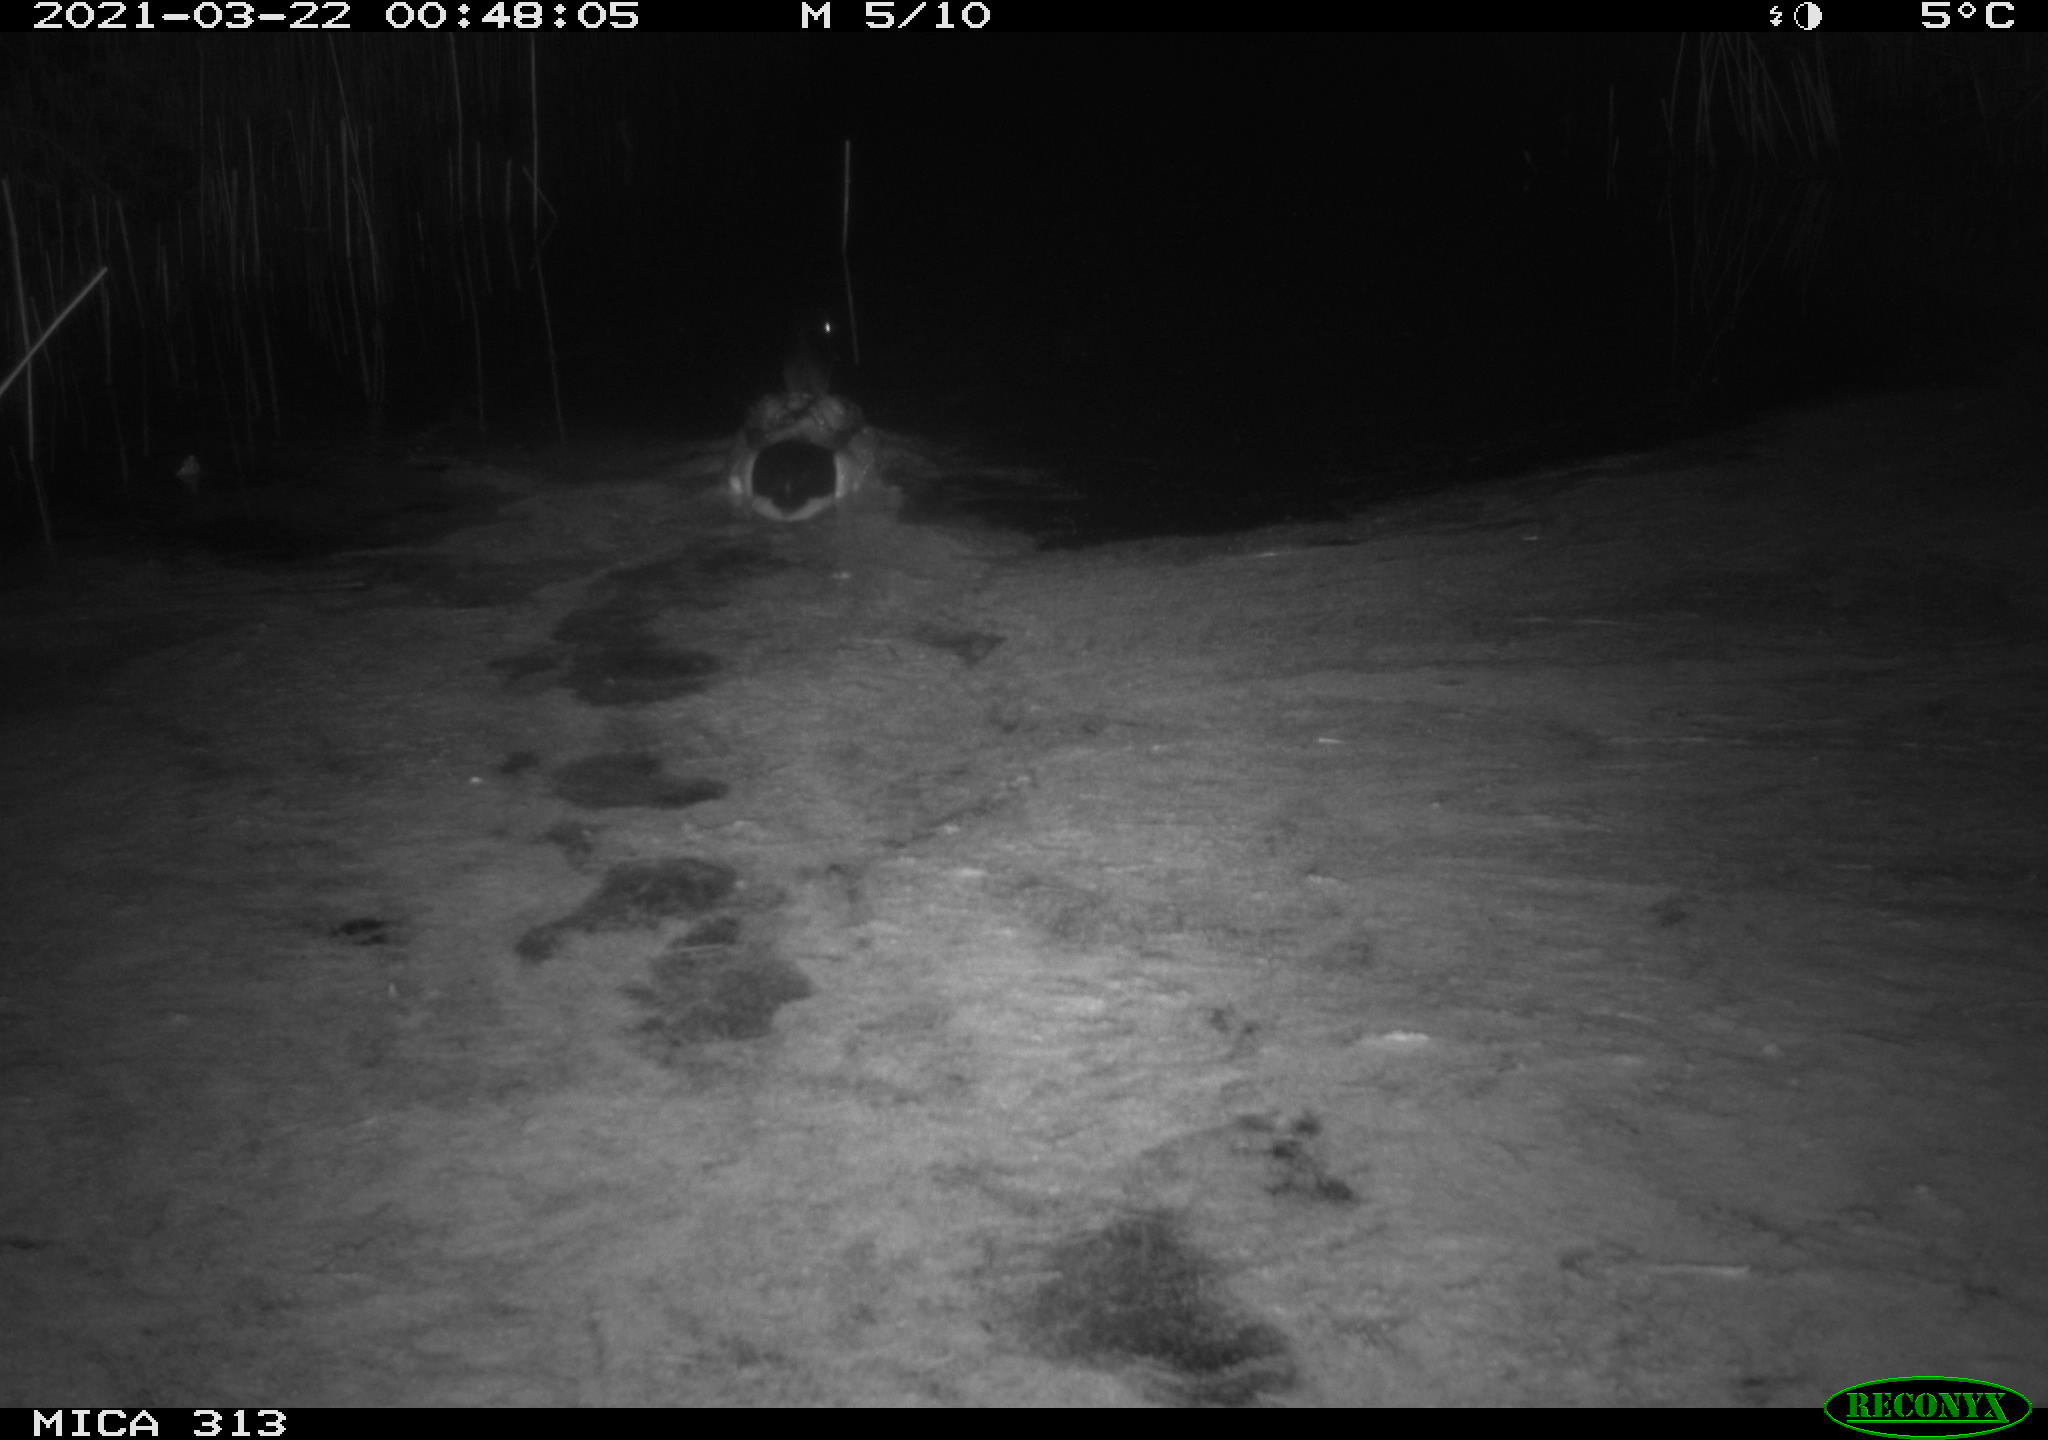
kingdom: Animalia
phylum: Chordata
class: Aves
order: Anseriformes
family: Anatidae
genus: Anas
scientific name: Anas platyrhynchos
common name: Mallard
